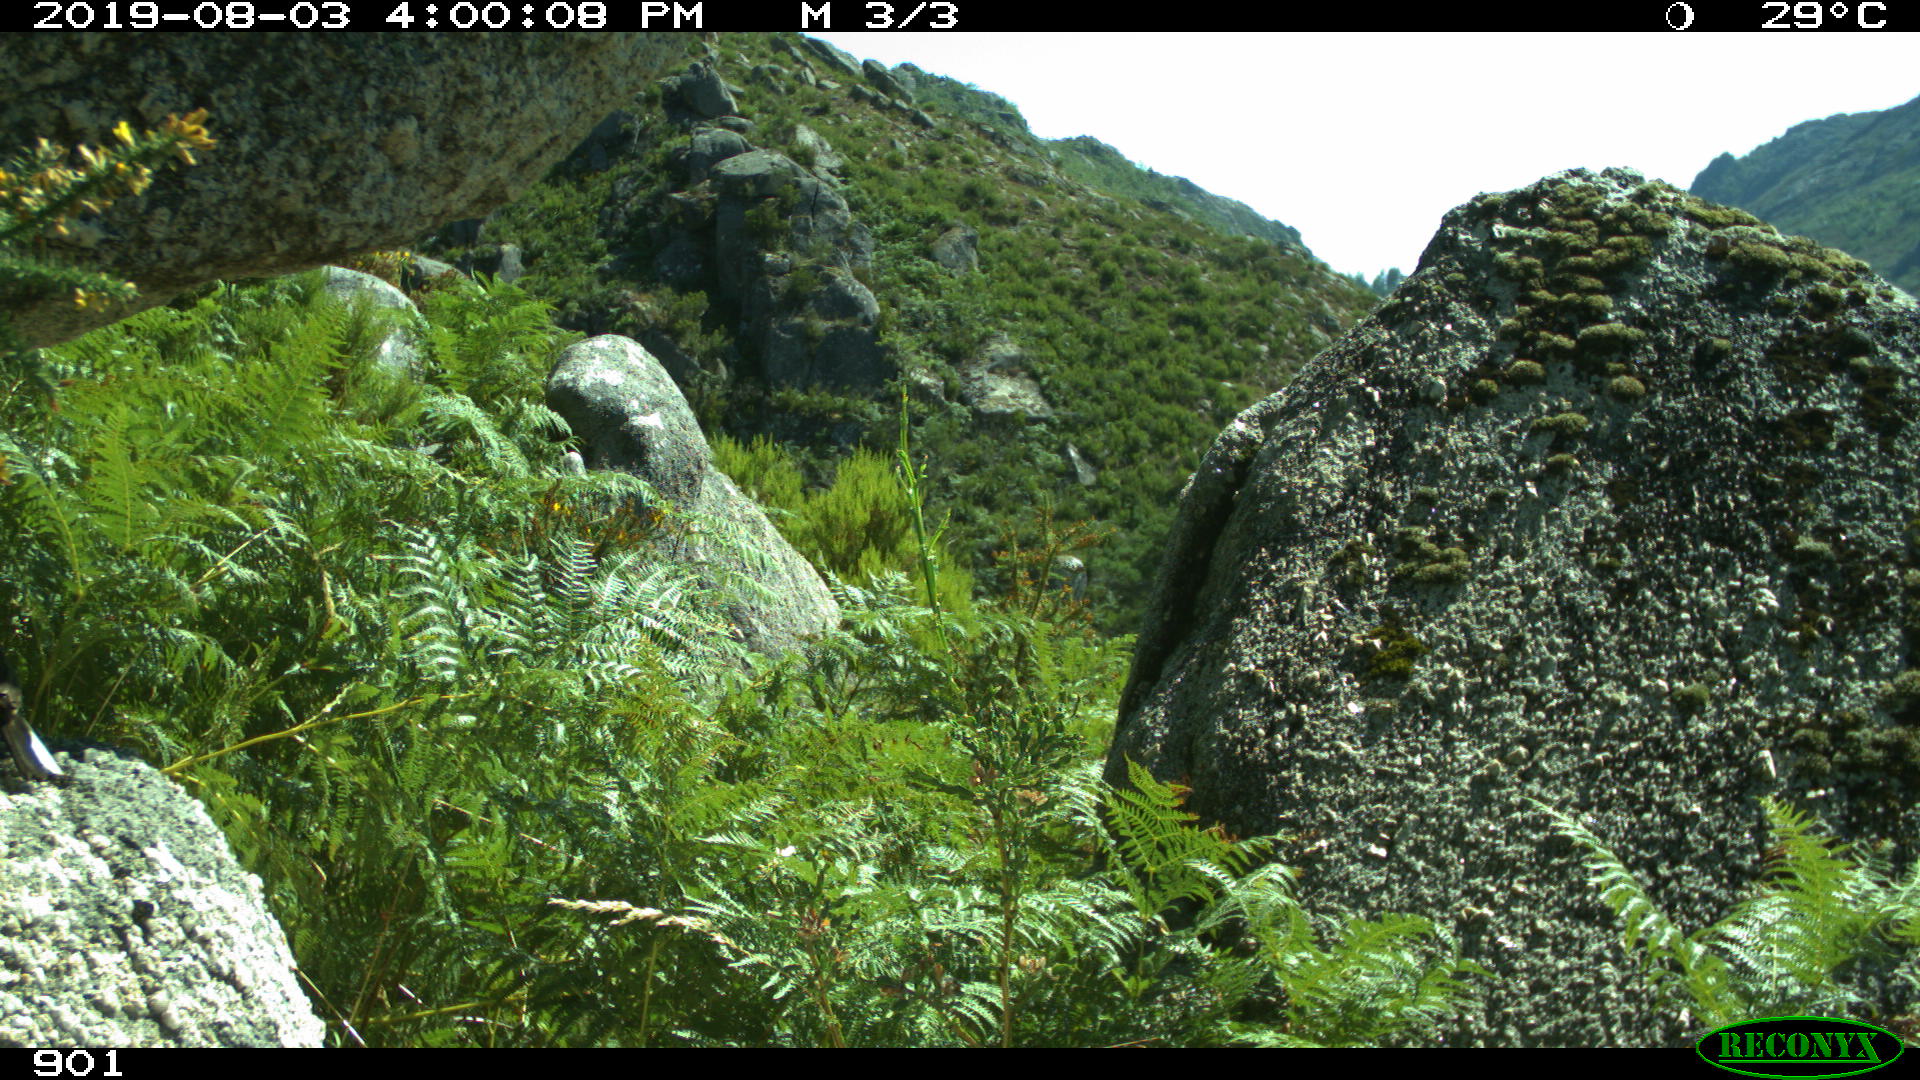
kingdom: Animalia
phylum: Chordata
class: Aves
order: Passeriformes
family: Emberizidae
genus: Emberiza
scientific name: Emberiza cia
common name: Rock bunting
